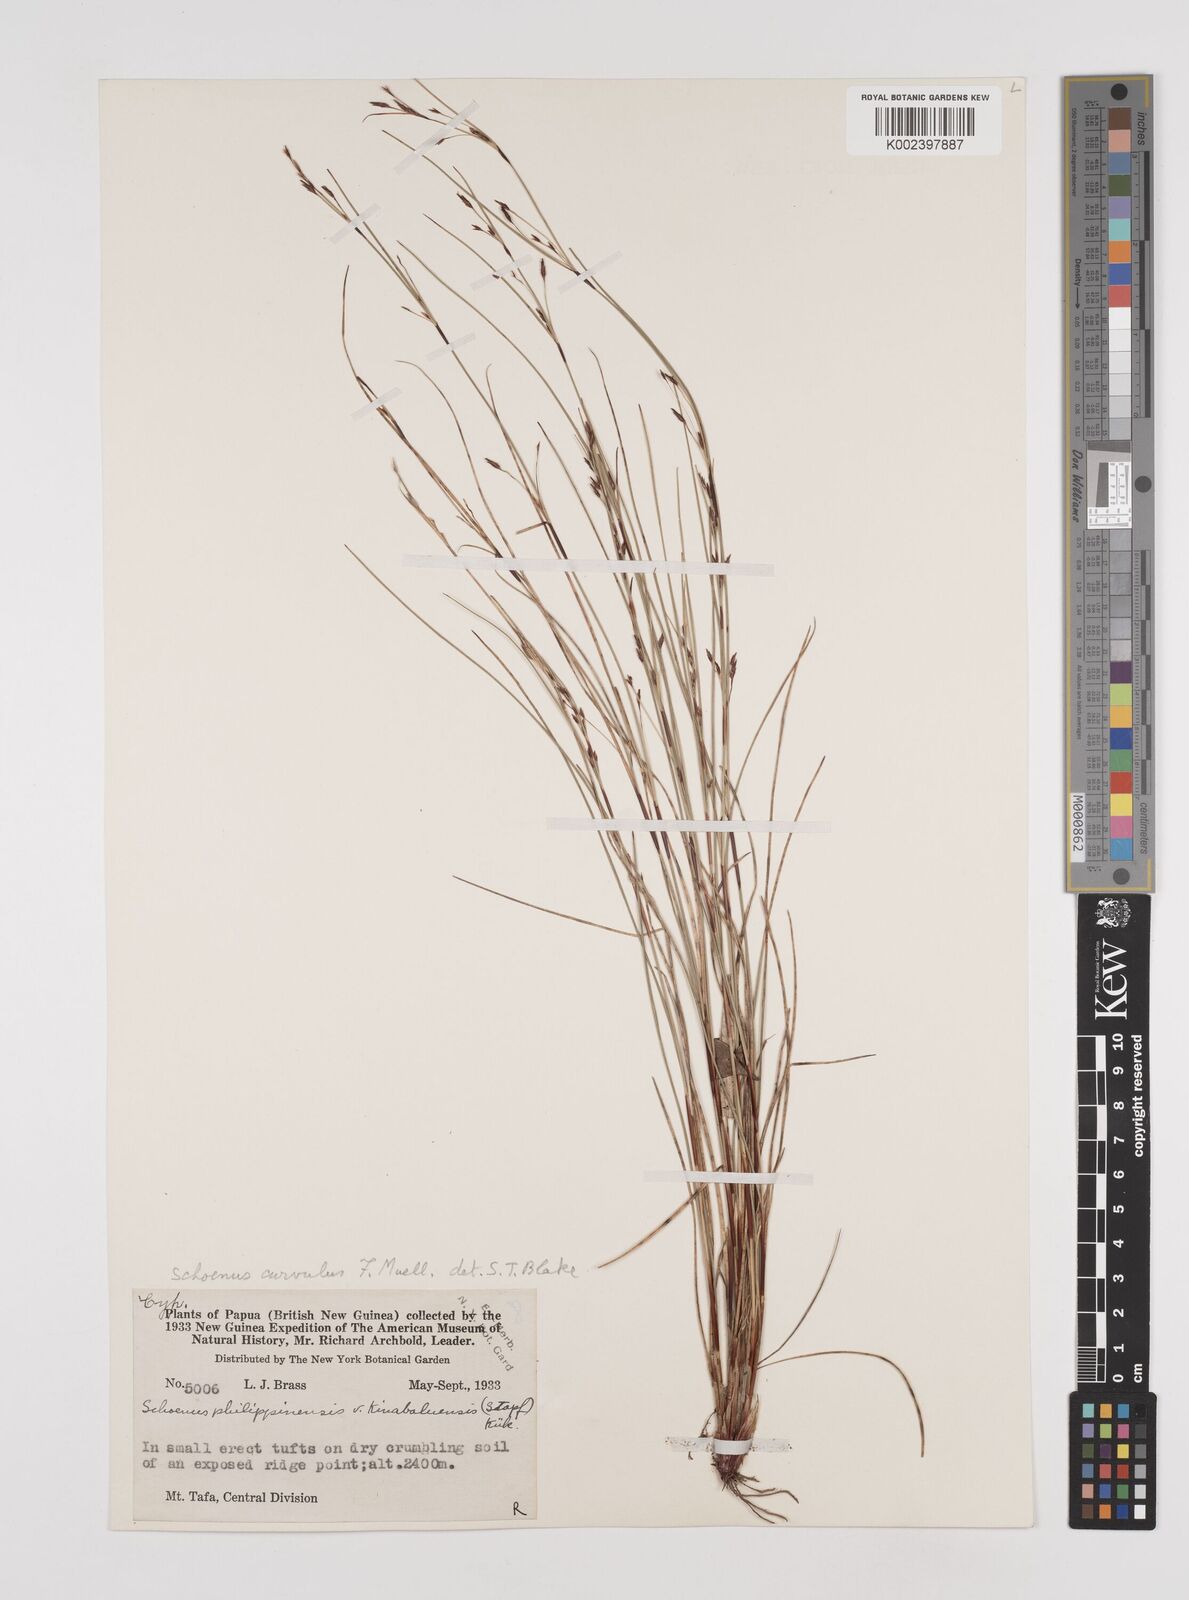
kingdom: Plantae
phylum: Tracheophyta
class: Liliopsida
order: Poales
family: Cyperaceae
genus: Schoenus
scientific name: Schoenus curvulus
